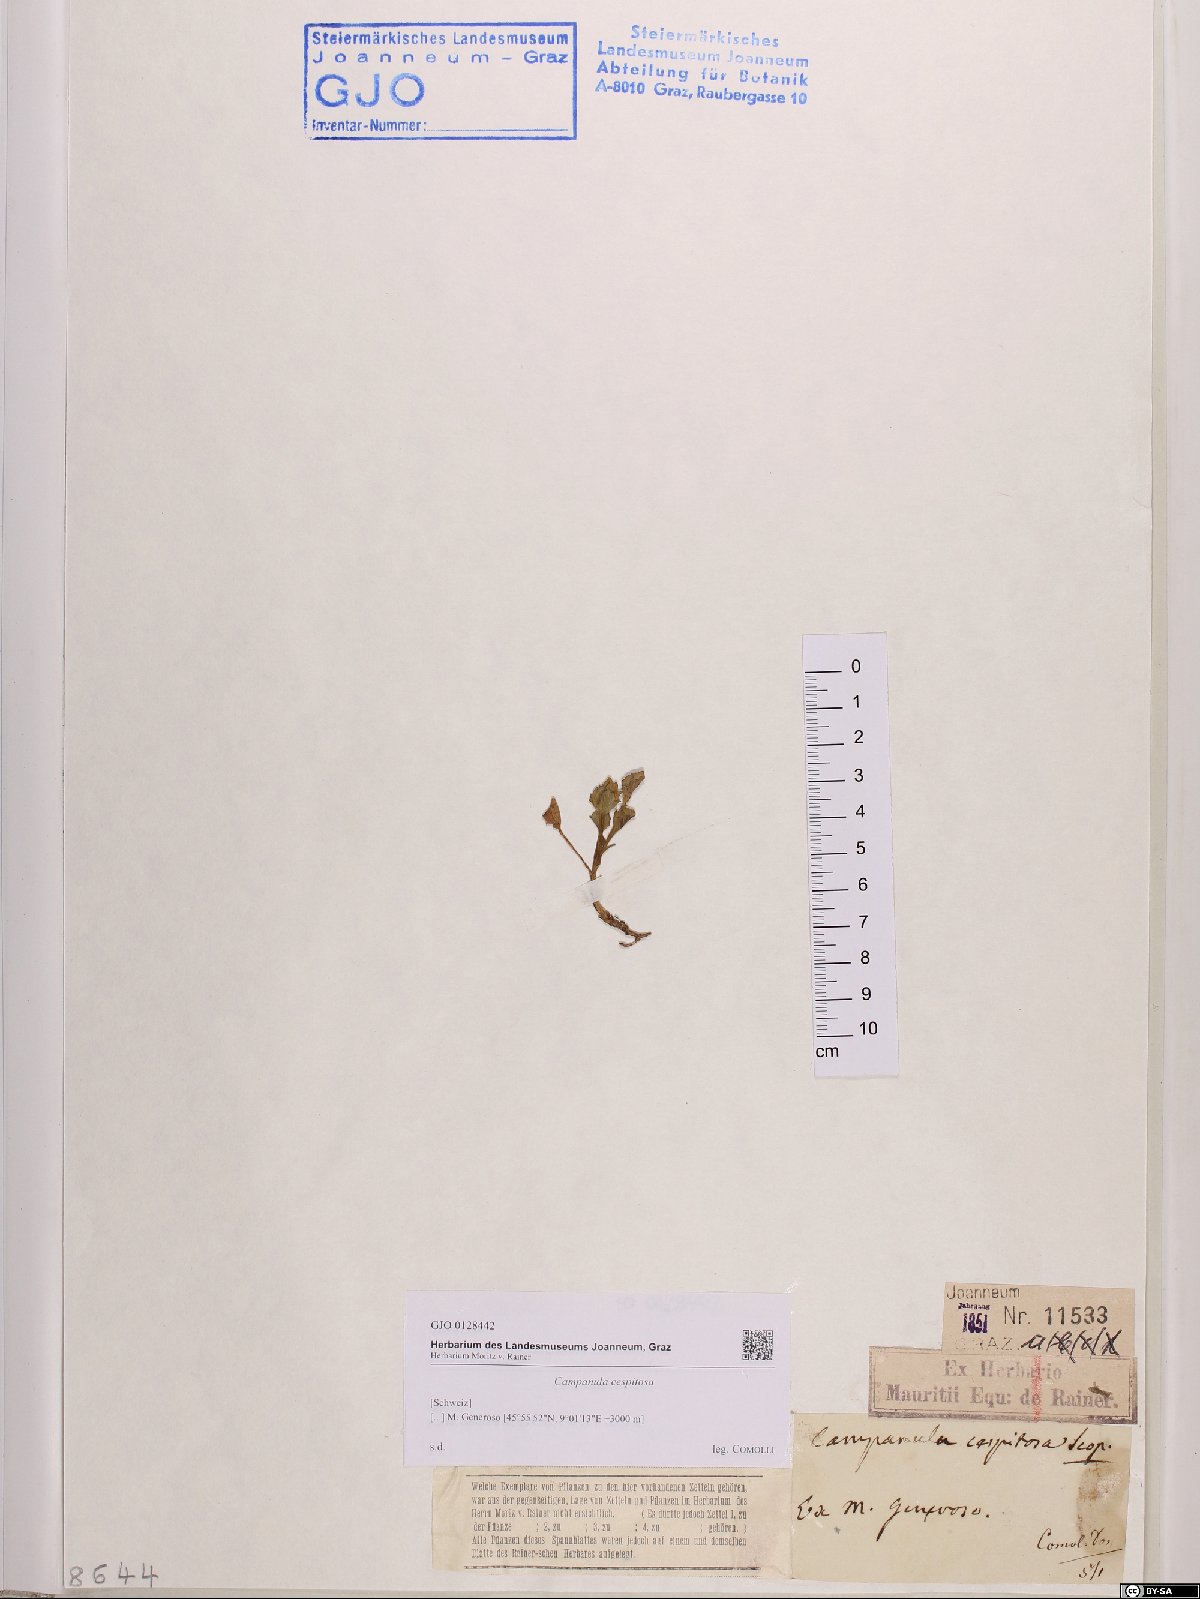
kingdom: Plantae
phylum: Tracheophyta
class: Magnoliopsida
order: Asterales
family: Campanulaceae
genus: Campanula
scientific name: Campanula cespitosa
